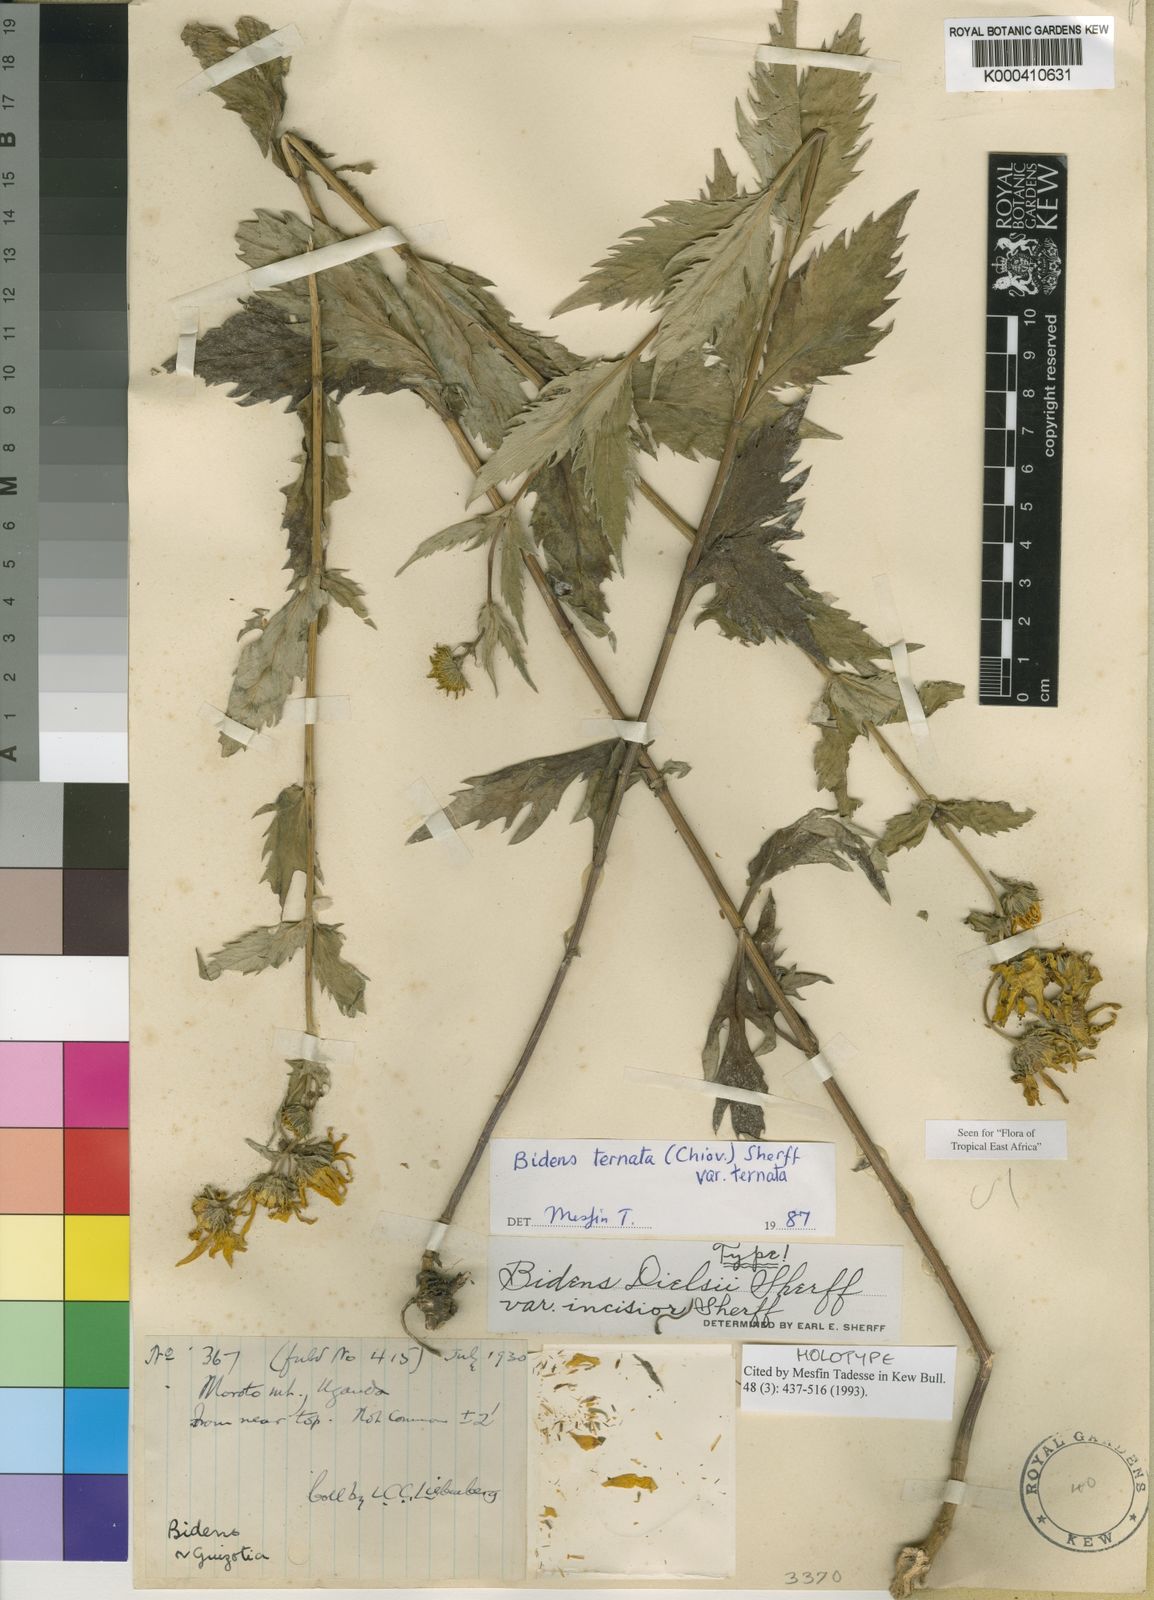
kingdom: Plantae
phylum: Tracheophyta
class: Magnoliopsida
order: Asterales
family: Asteraceae
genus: Bidens
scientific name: Bidens ternata
